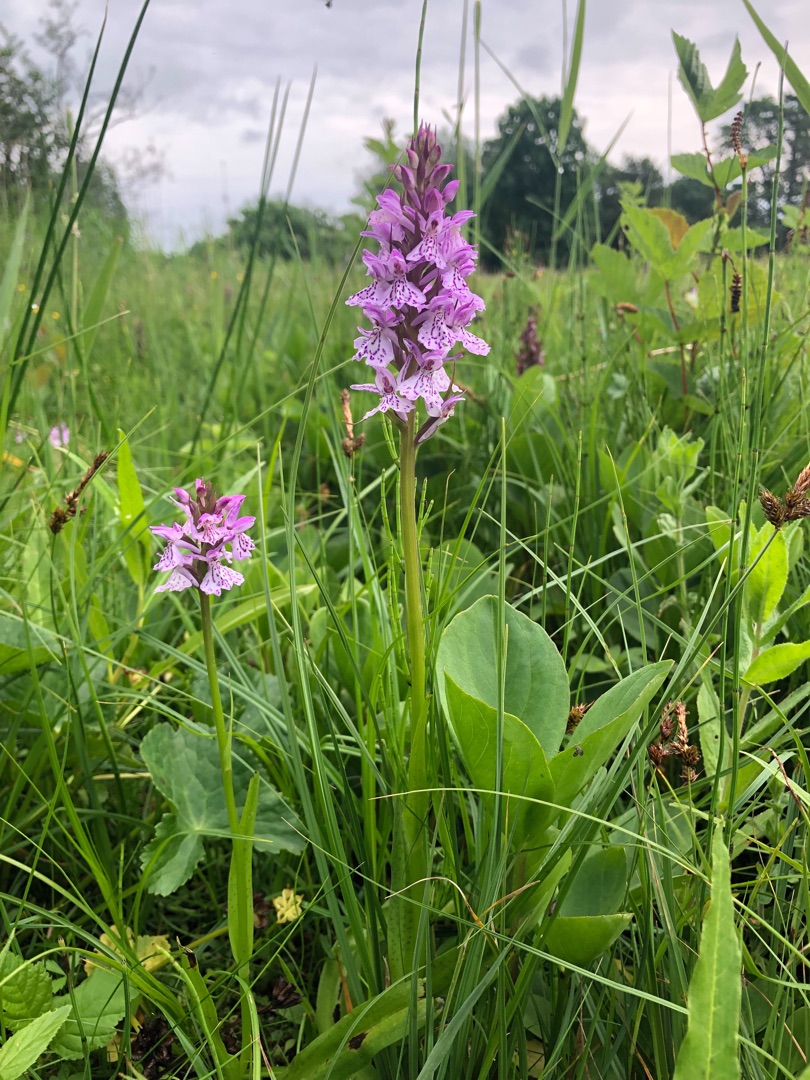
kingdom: Plantae
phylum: Tracheophyta
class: Liliopsida
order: Asparagales
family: Orchidaceae
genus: Dactylorhiza
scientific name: Dactylorhiza maculata
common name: Plettet gøgeurt
